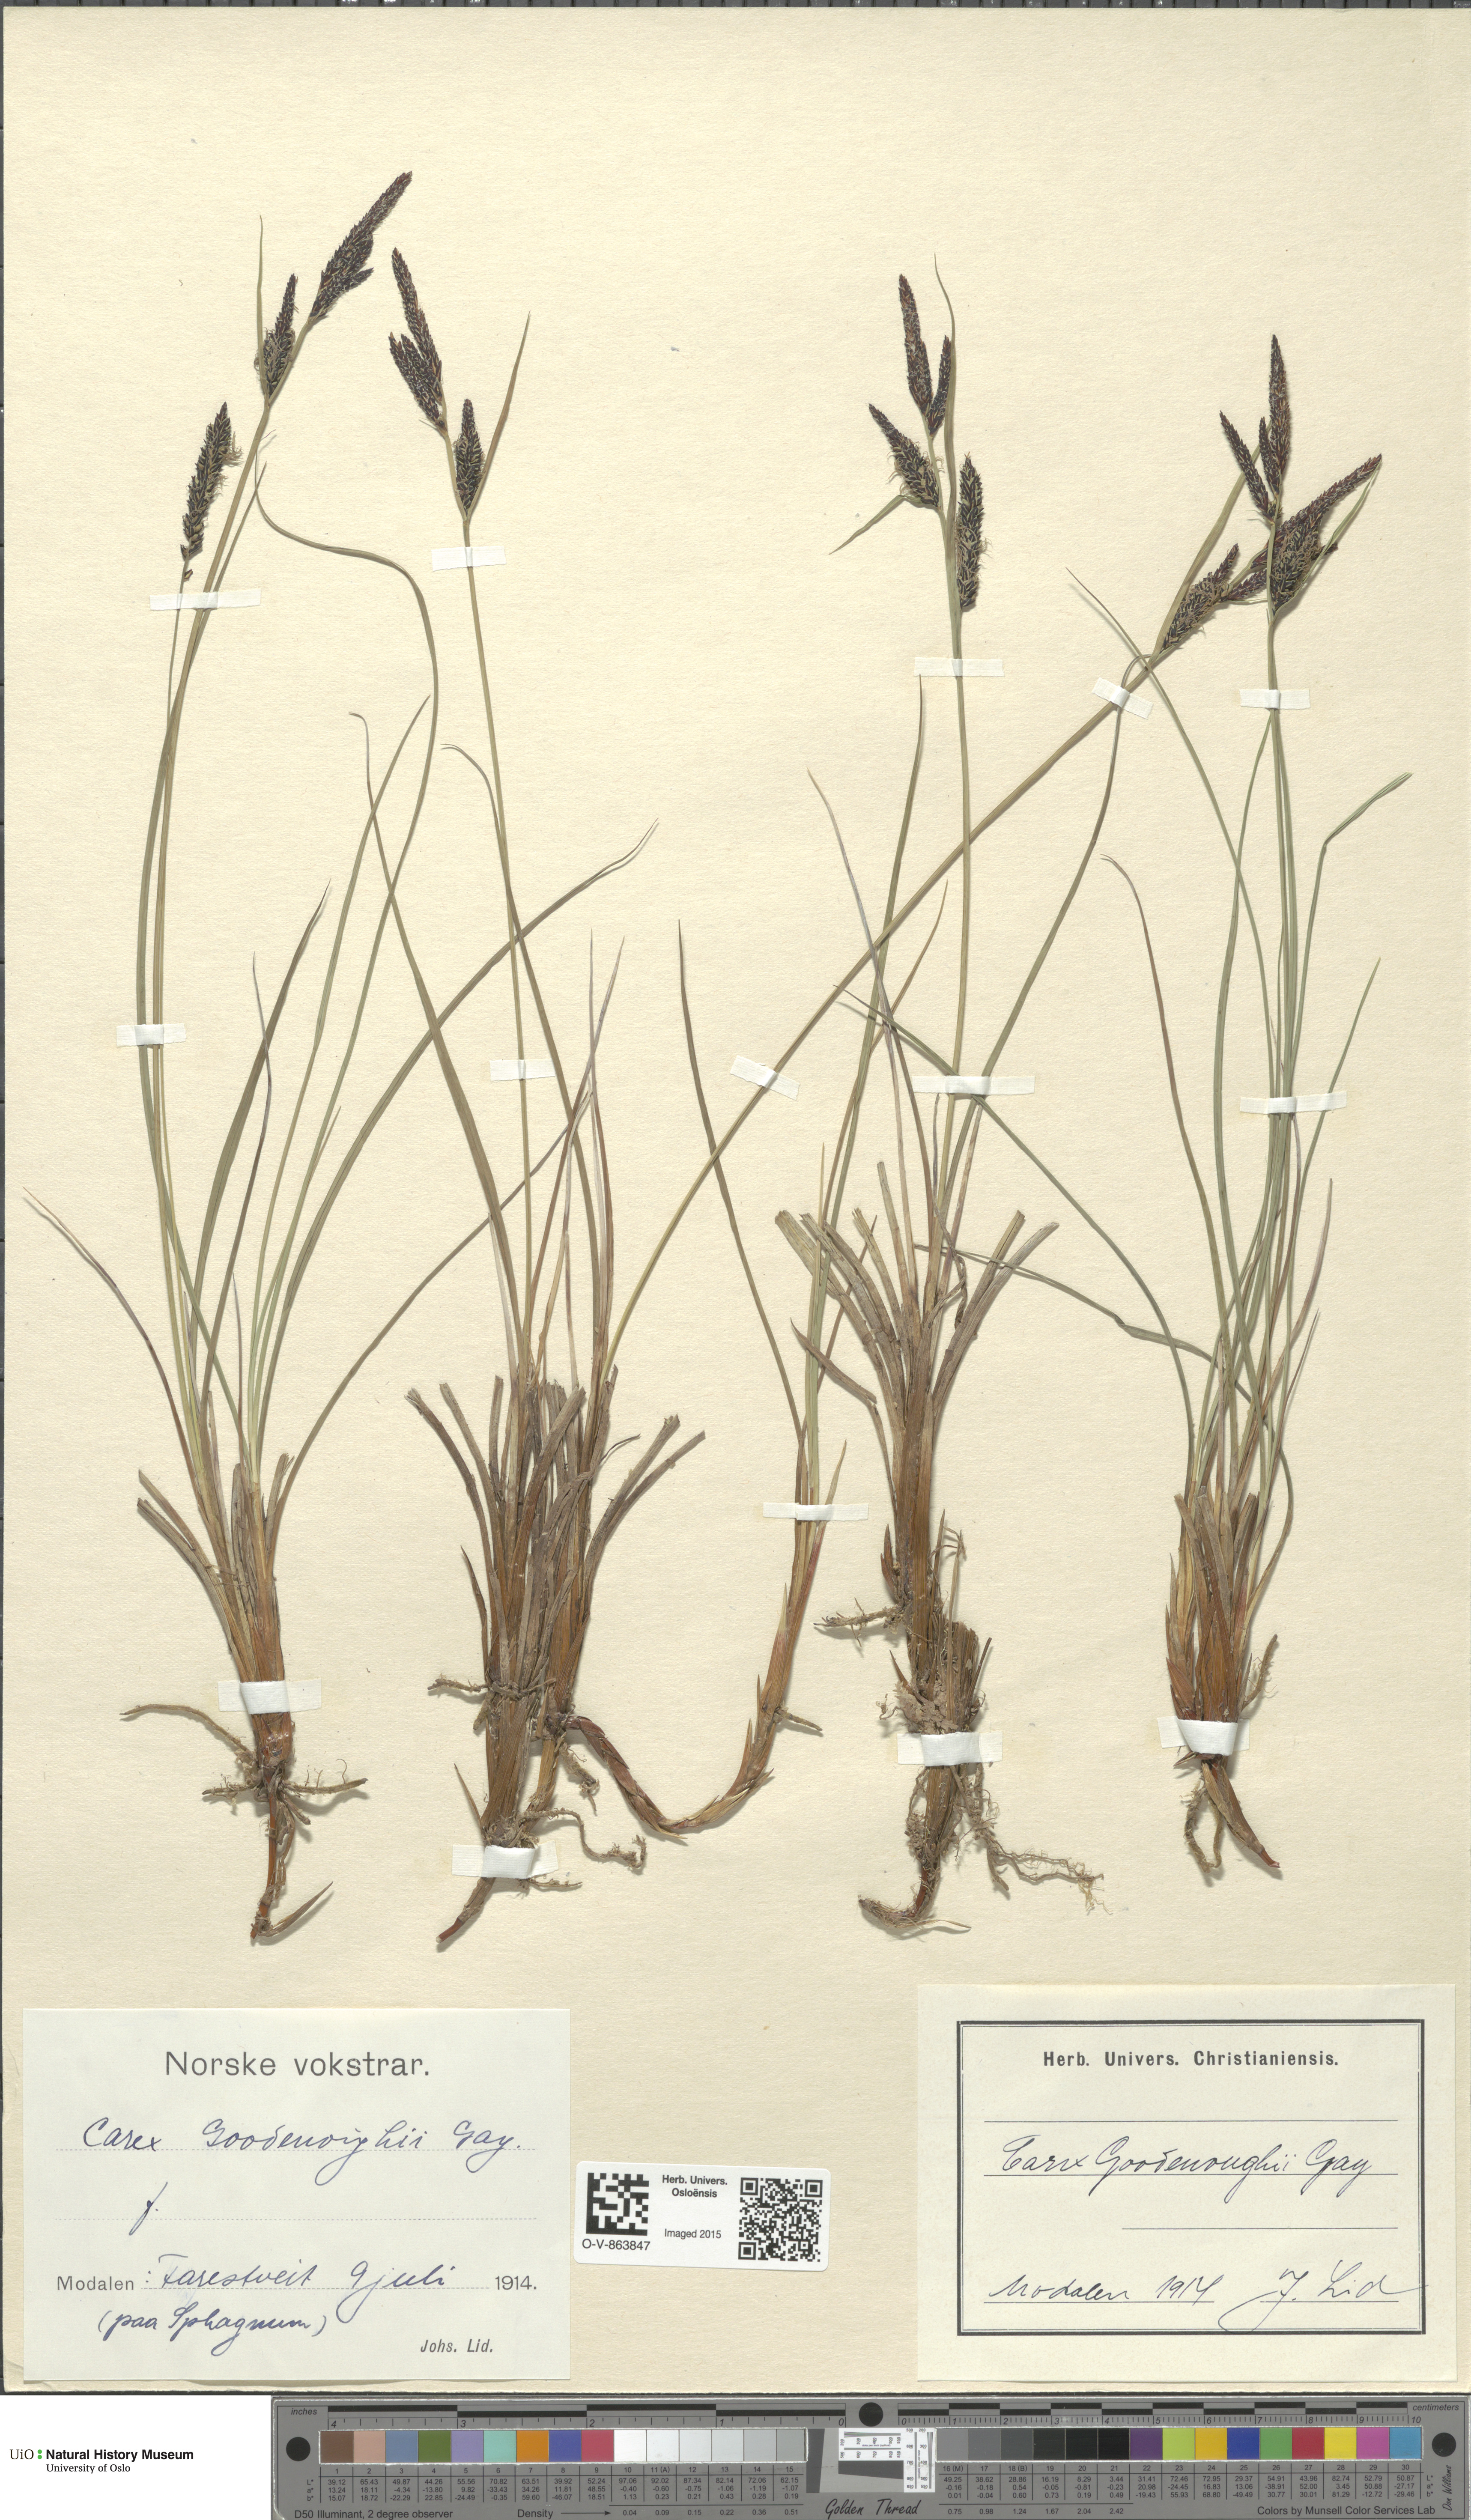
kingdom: Plantae
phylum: Tracheophyta
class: Liliopsida
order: Poales
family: Cyperaceae
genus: Carex
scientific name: Carex nigra
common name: Common sedge
